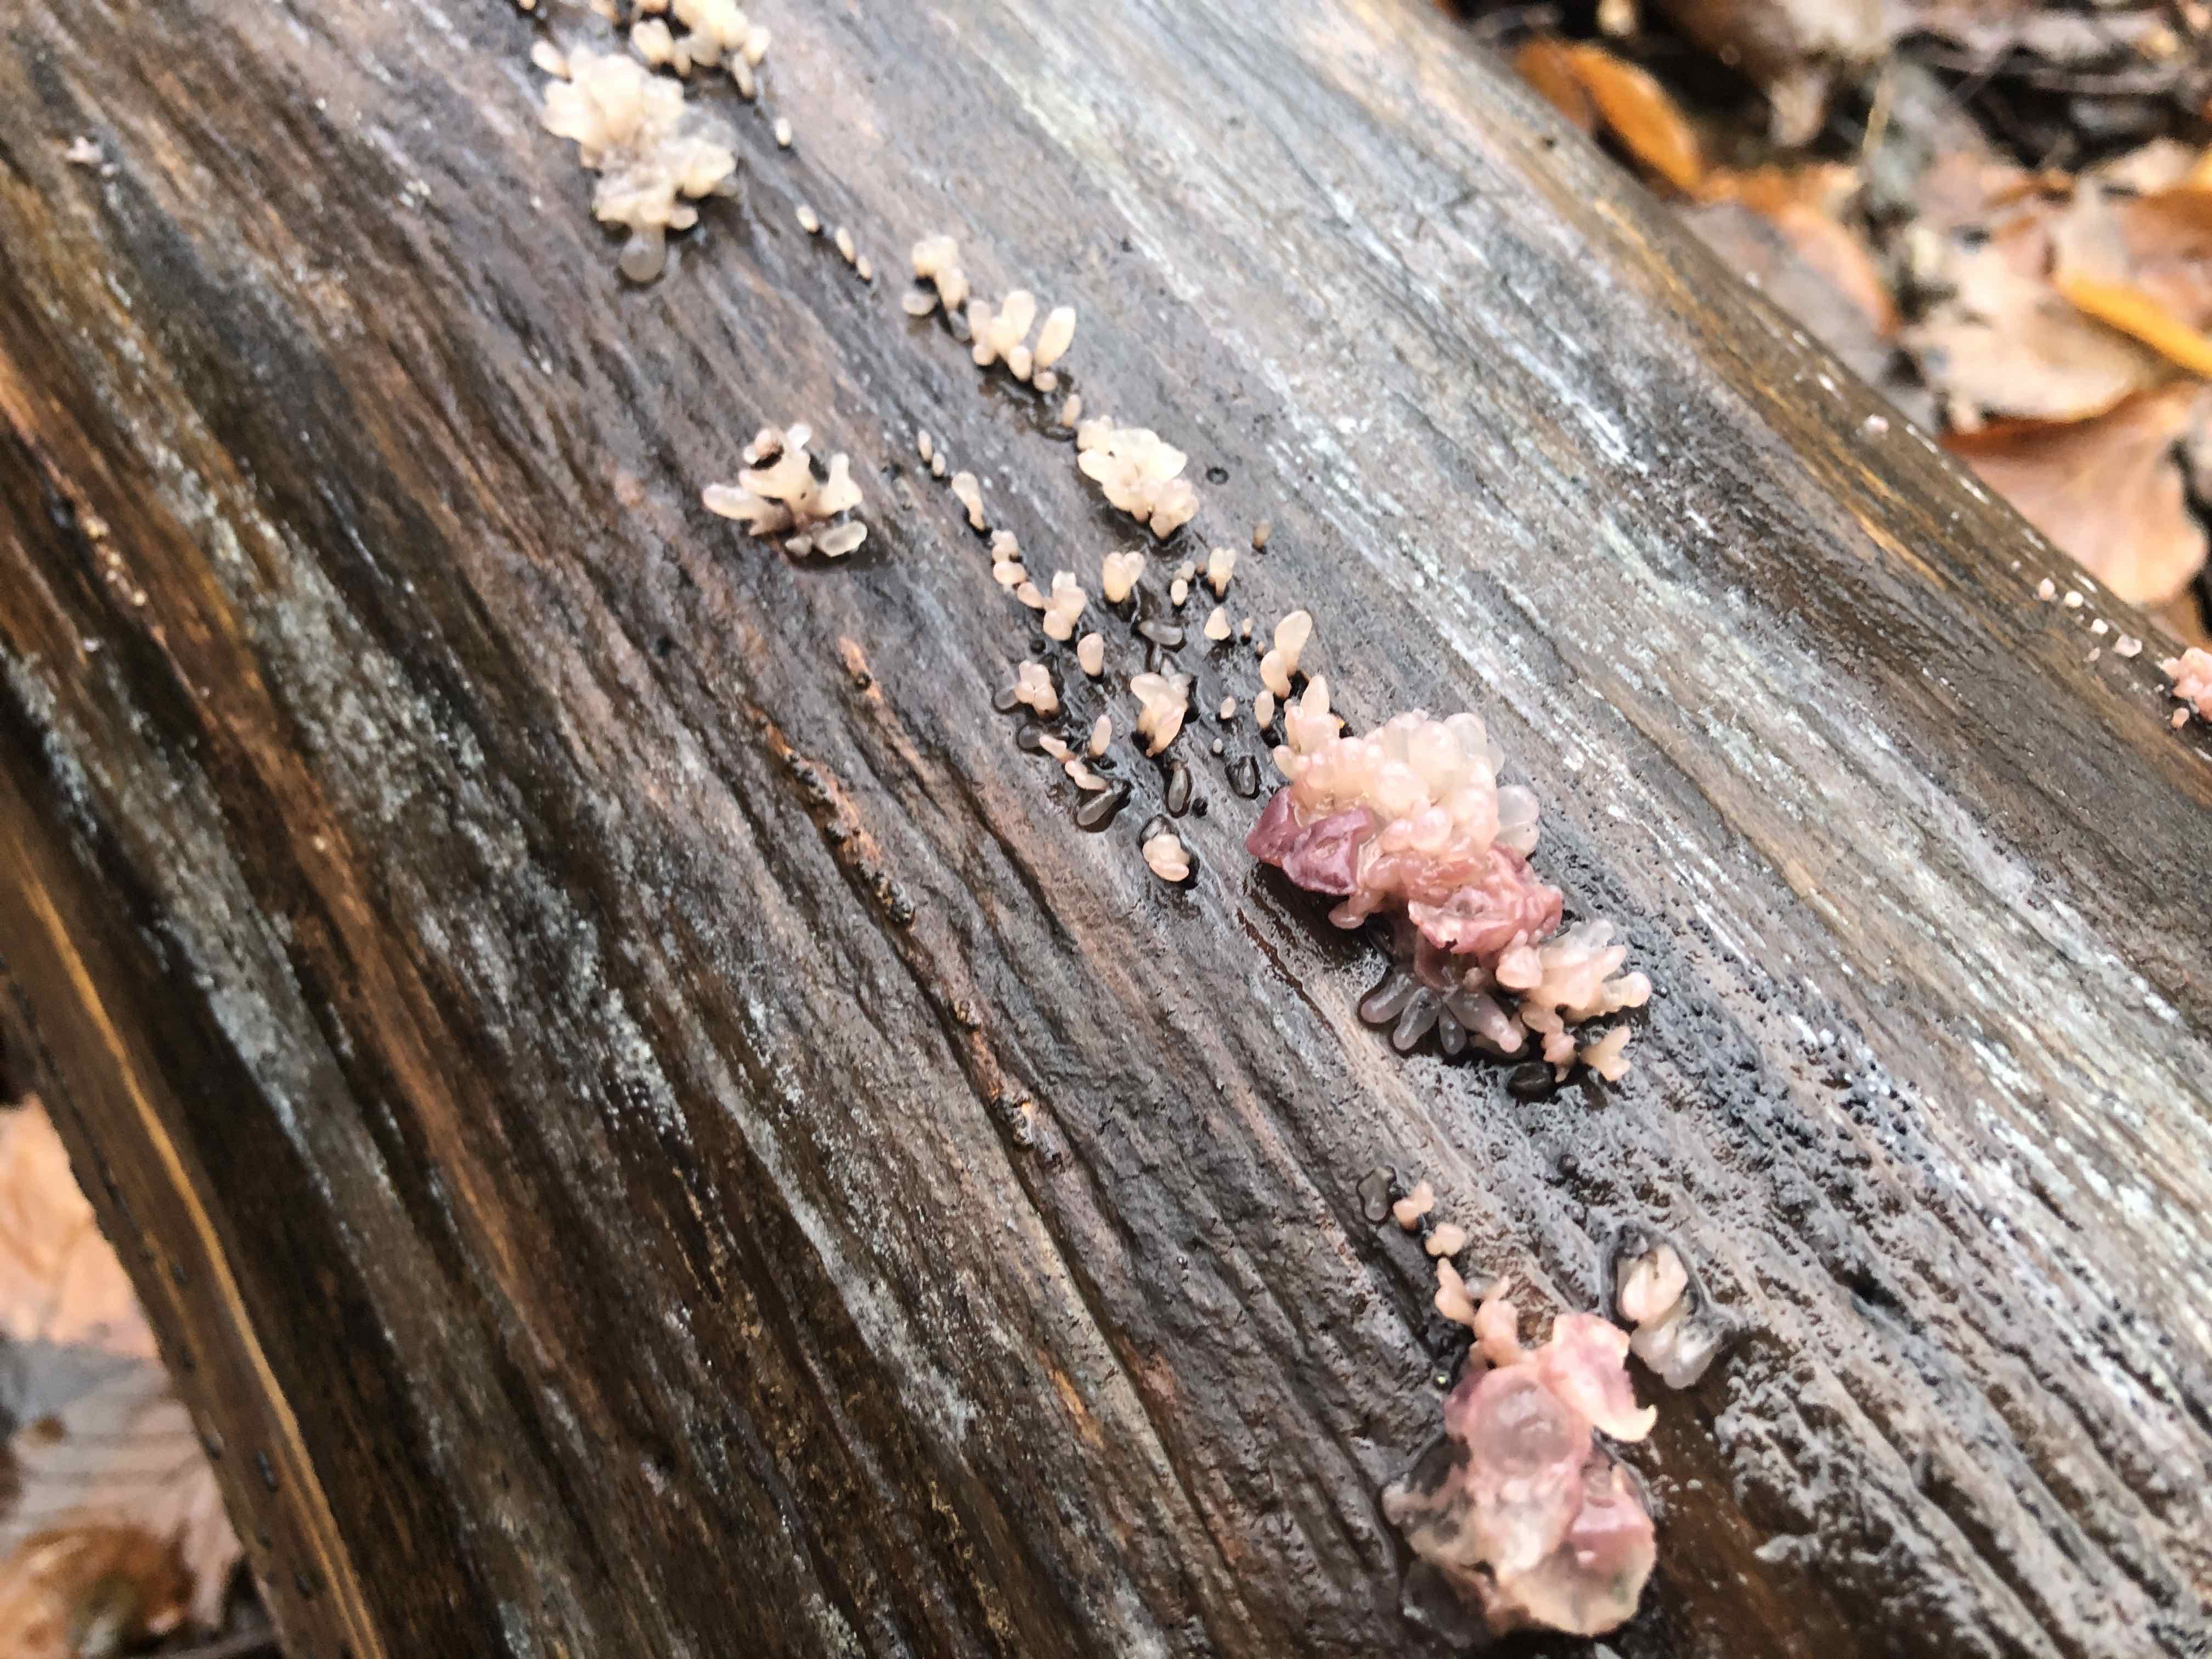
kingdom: Fungi
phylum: Ascomycota
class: Leotiomycetes
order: Helotiales
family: Gelatinodiscaceae
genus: Ascocoryne
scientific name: Ascocoryne sarcoides
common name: rødlilla sejskive
